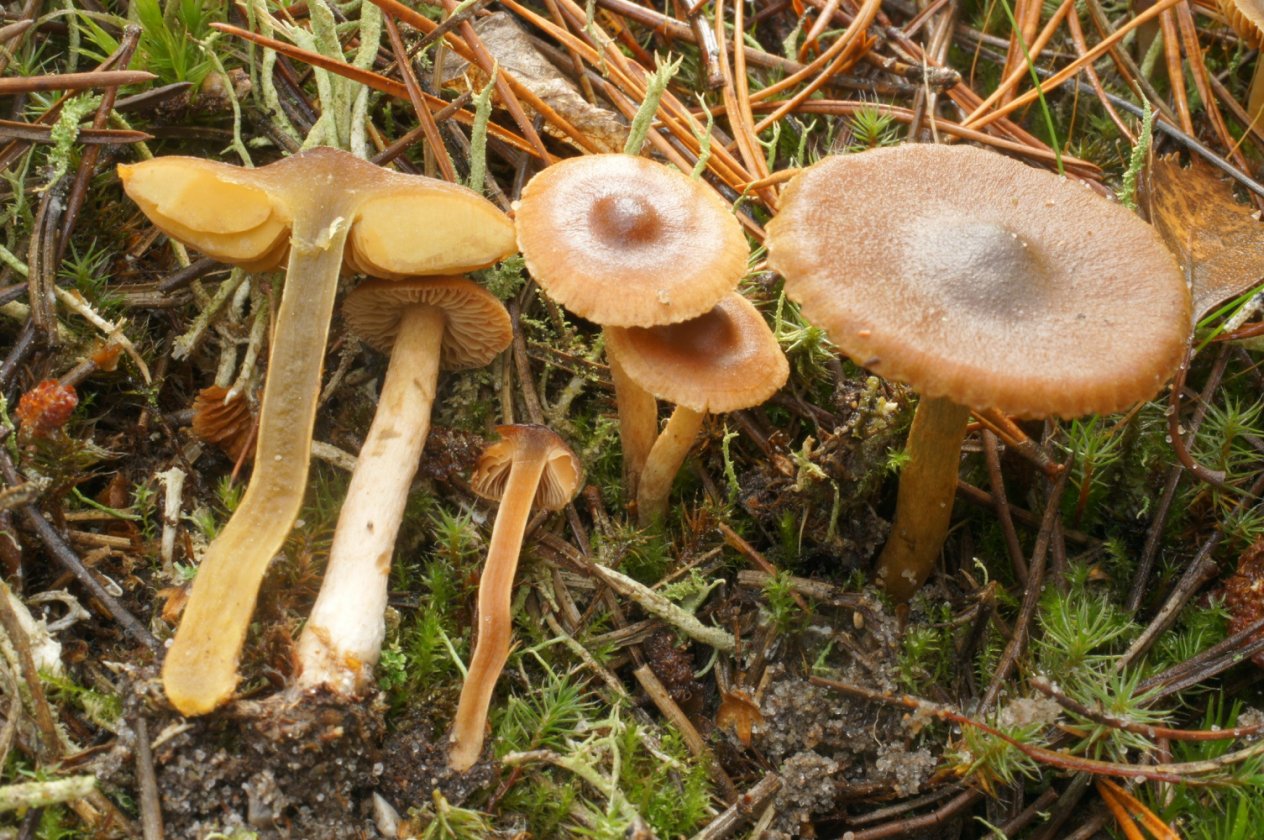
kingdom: Fungi
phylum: Basidiomycota
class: Agaricomycetes
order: Agaricales
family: Cortinariaceae
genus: Cortinarius
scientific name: Cortinarius
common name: gulbladet slørhat
